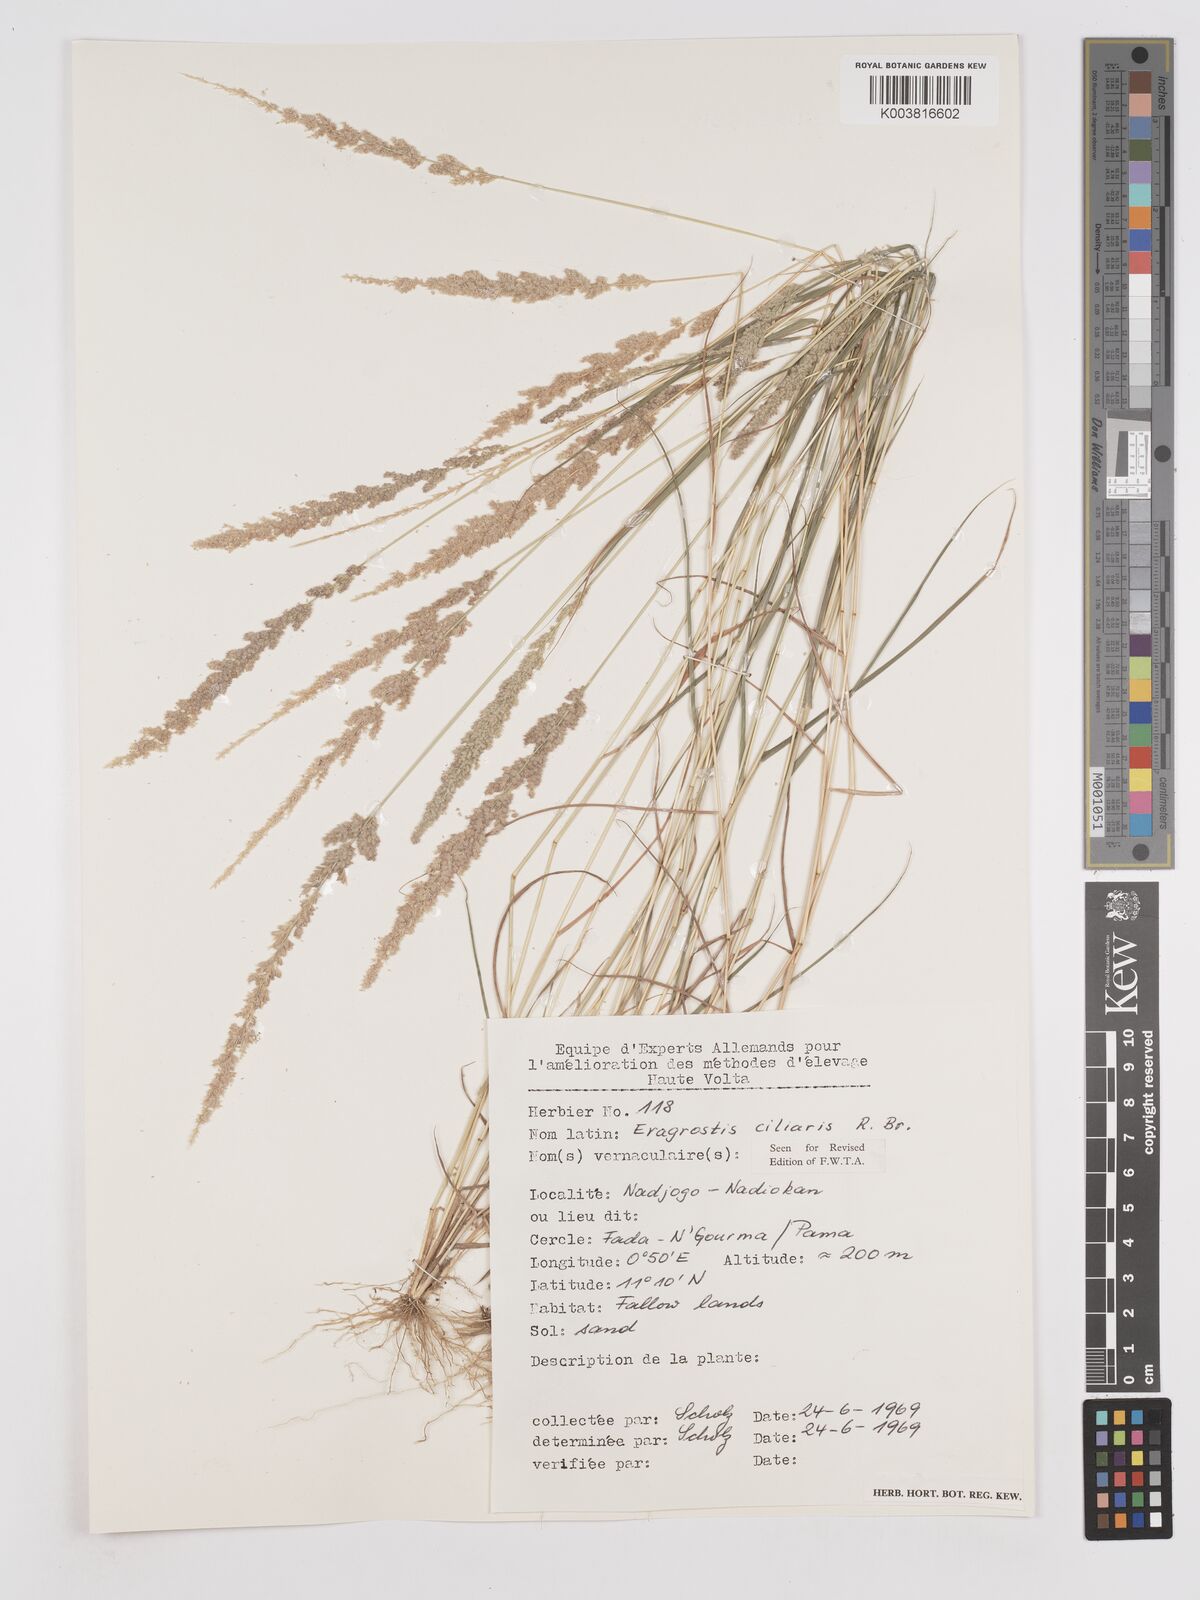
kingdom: Plantae
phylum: Tracheophyta
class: Liliopsida
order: Poales
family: Poaceae
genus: Eragrostis
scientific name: Eragrostis ciliaris
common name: Gophertail lovegrass
